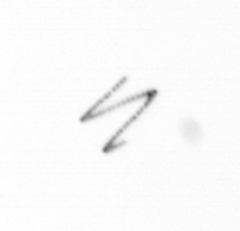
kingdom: Chromista
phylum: Ochrophyta
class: Bacillariophyceae
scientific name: Bacillariophyceae
